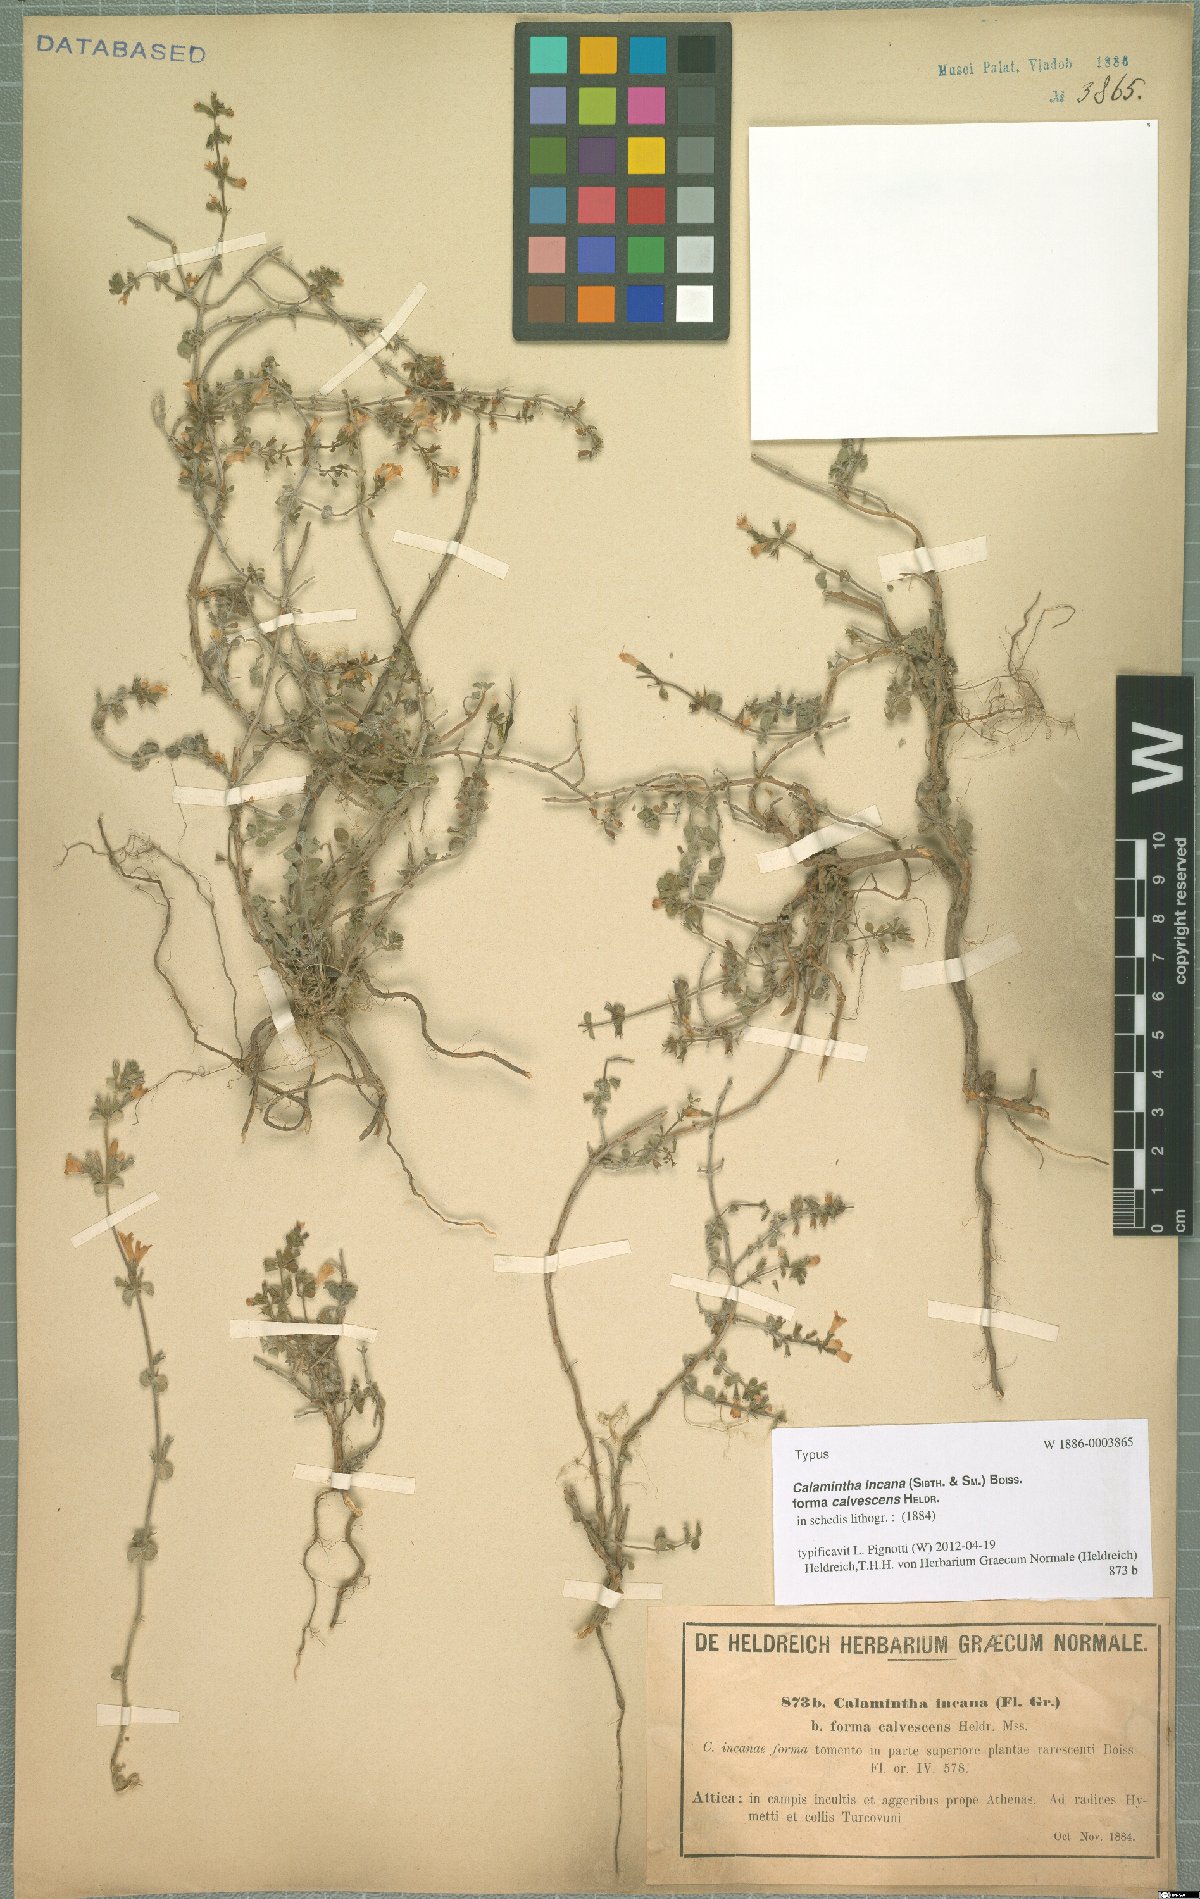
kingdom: Plantae
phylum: Tracheophyta
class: Magnoliopsida
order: Lamiales
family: Lamiaceae
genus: Clinopodium
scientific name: Clinopodium brevifolium
